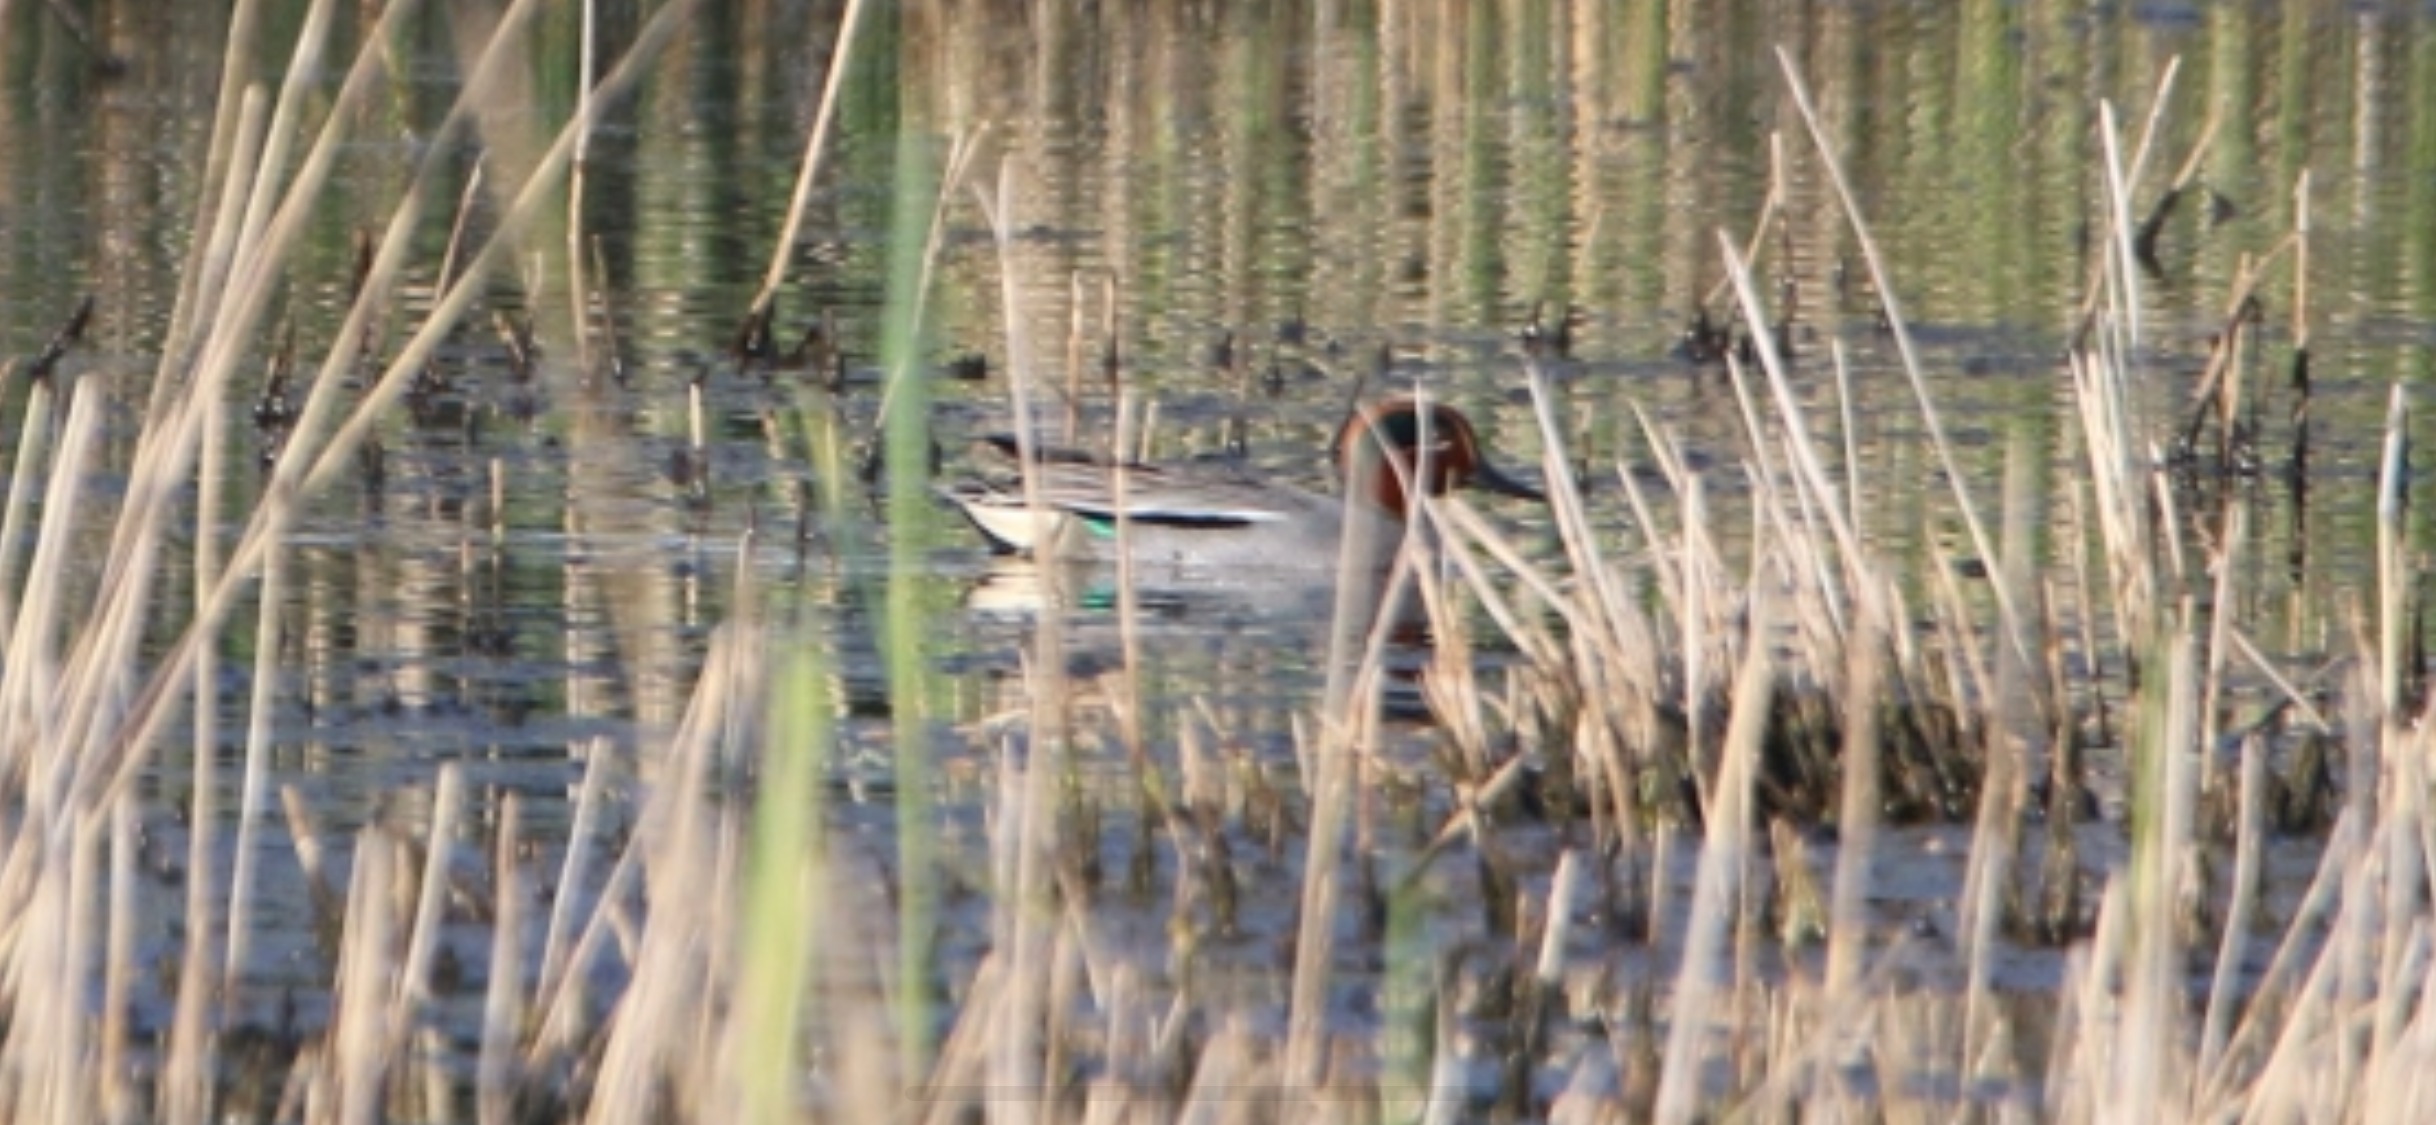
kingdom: Animalia
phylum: Chordata
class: Aves
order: Anseriformes
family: Anatidae
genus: Anas
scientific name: Anas crecca
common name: Krikand
